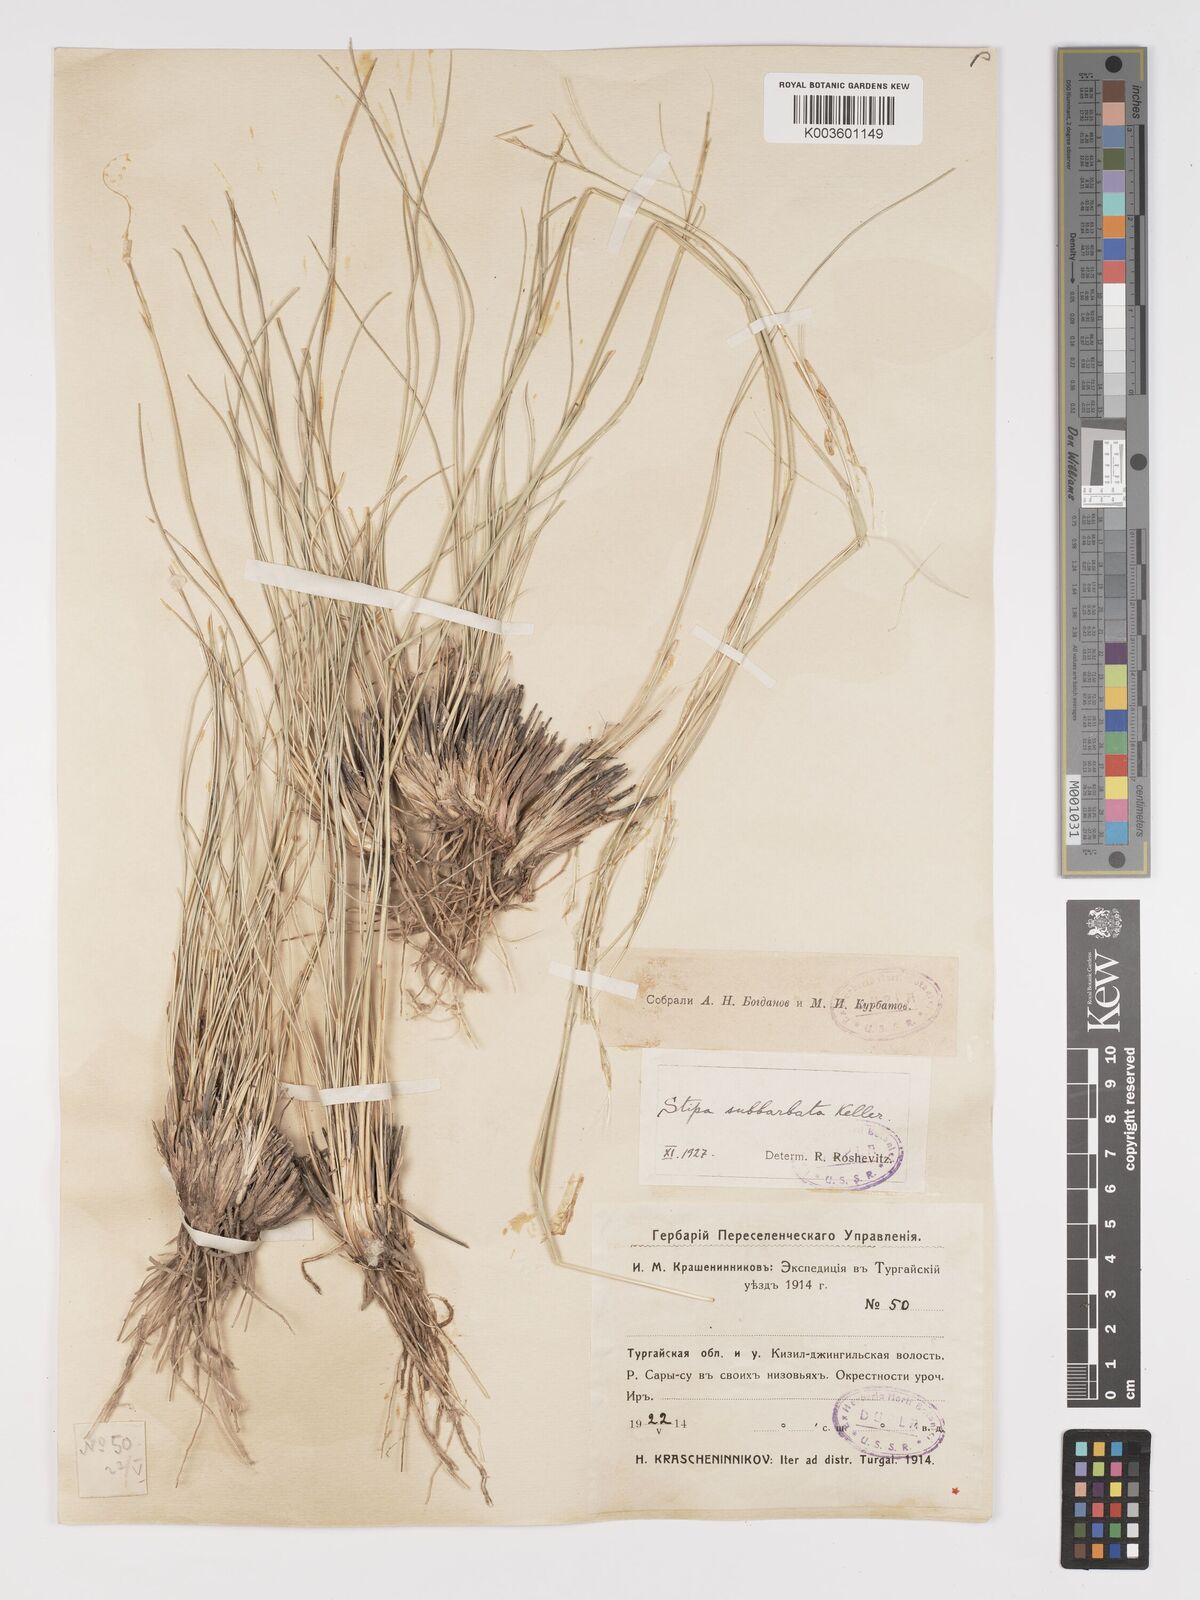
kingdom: Plantae
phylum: Tracheophyta
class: Liliopsida
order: Poales
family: Poaceae
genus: Stipa
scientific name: Stipa hohenackeriana
